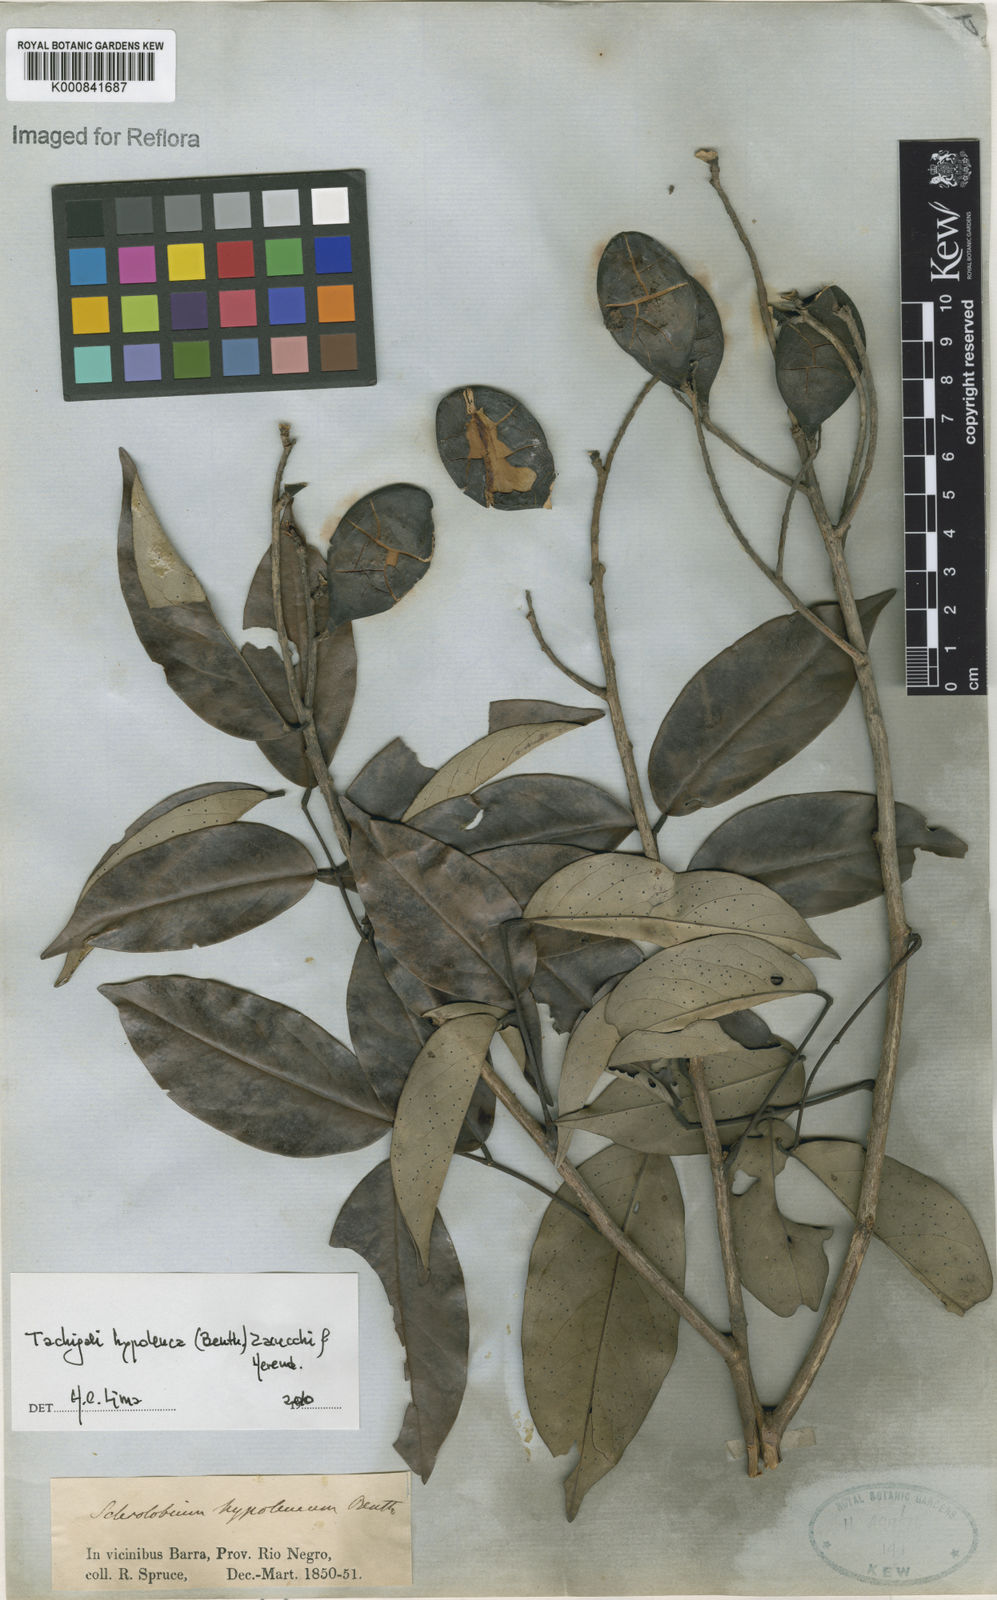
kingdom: Plantae
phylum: Tracheophyta
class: Magnoliopsida
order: Fabales
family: Fabaceae
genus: Tachigali
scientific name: Tachigali hypoleuca
